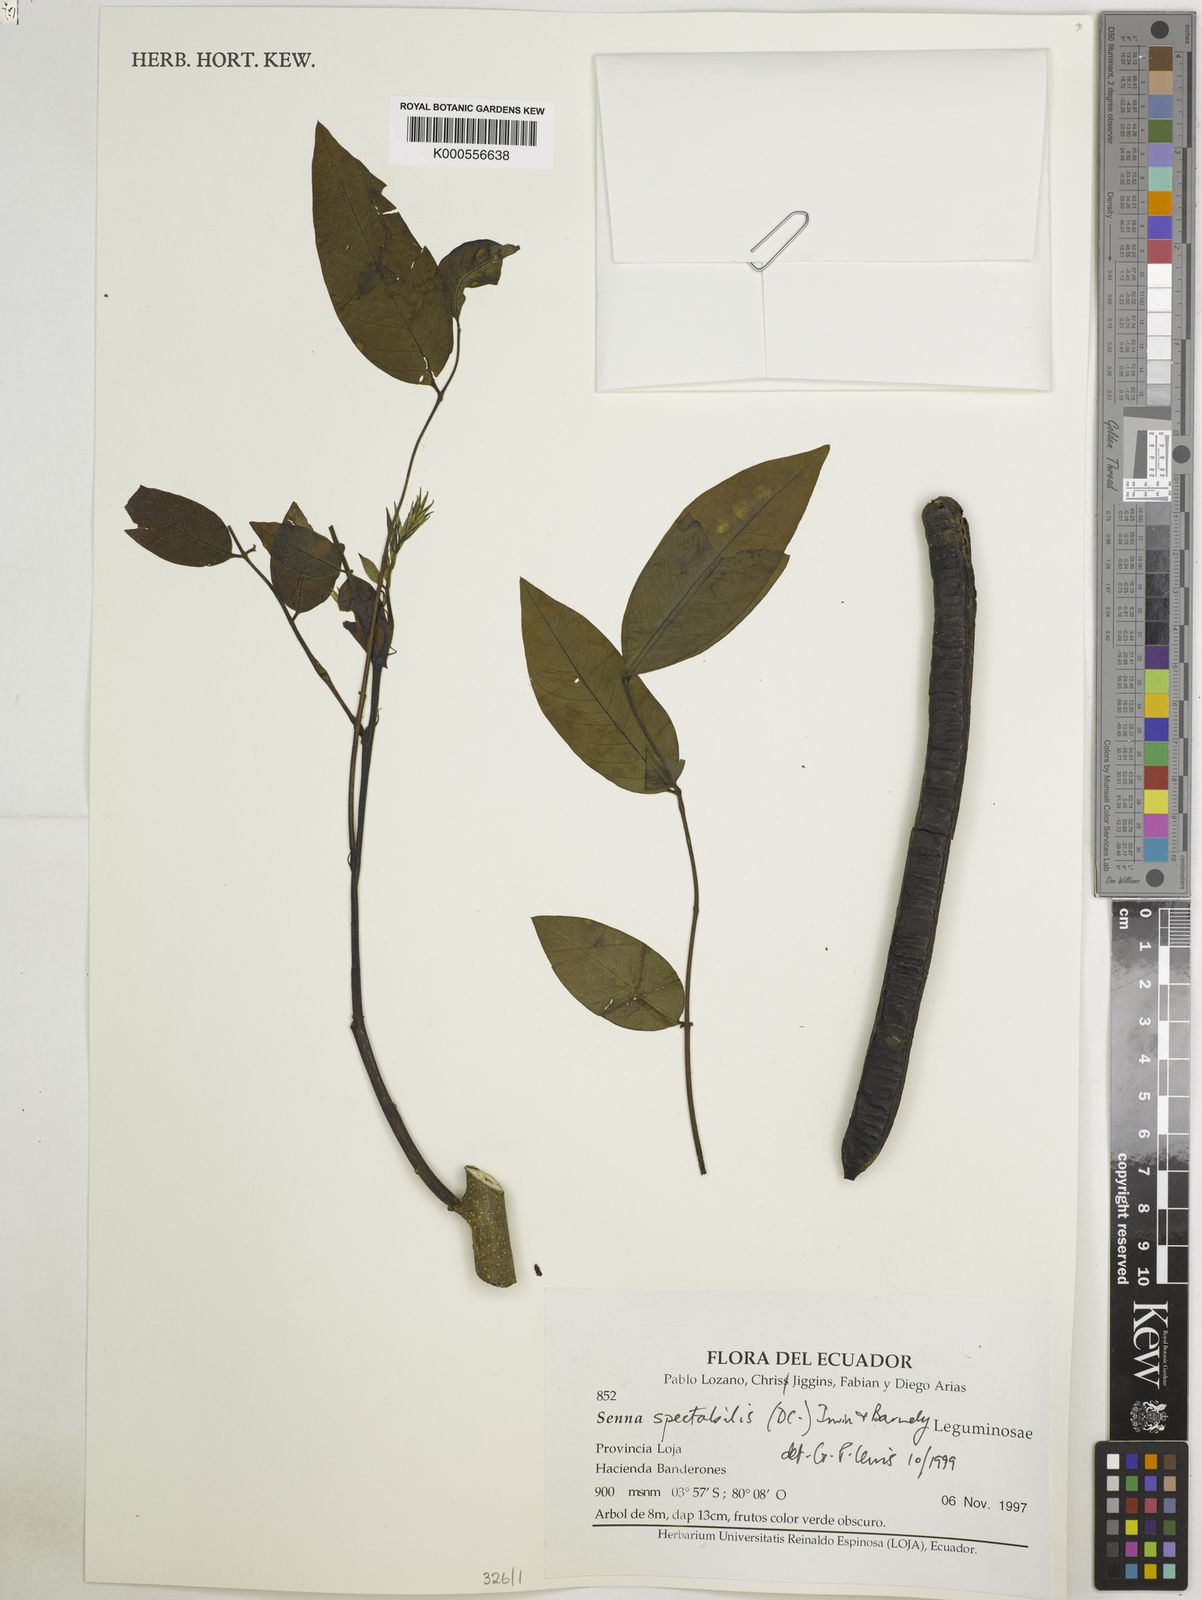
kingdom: Plantae
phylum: Tracheophyta
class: Magnoliopsida
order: Fabales
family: Fabaceae
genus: Senna
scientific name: Senna spectabilis
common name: Casia amarilla
